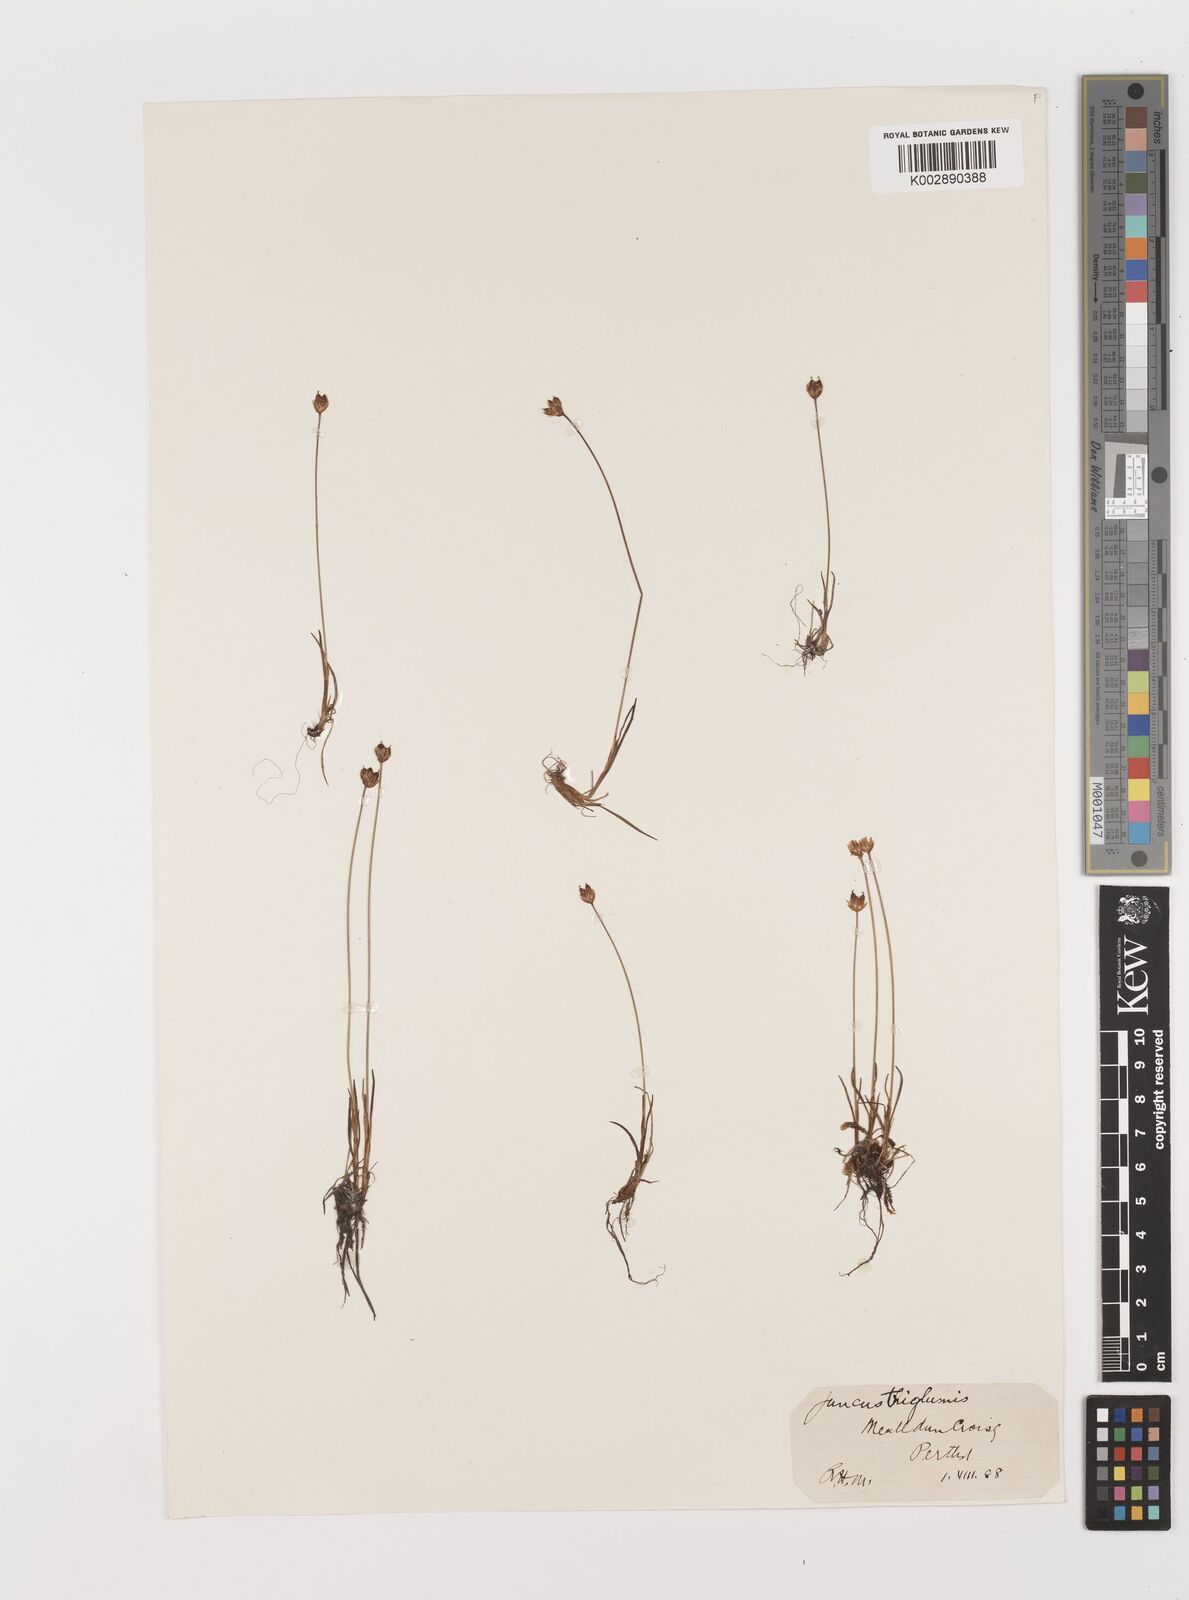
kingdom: Plantae
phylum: Tracheophyta
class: Liliopsida
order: Poales
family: Juncaceae
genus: Juncus
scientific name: Juncus triglumis
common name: Three-flowered rush
